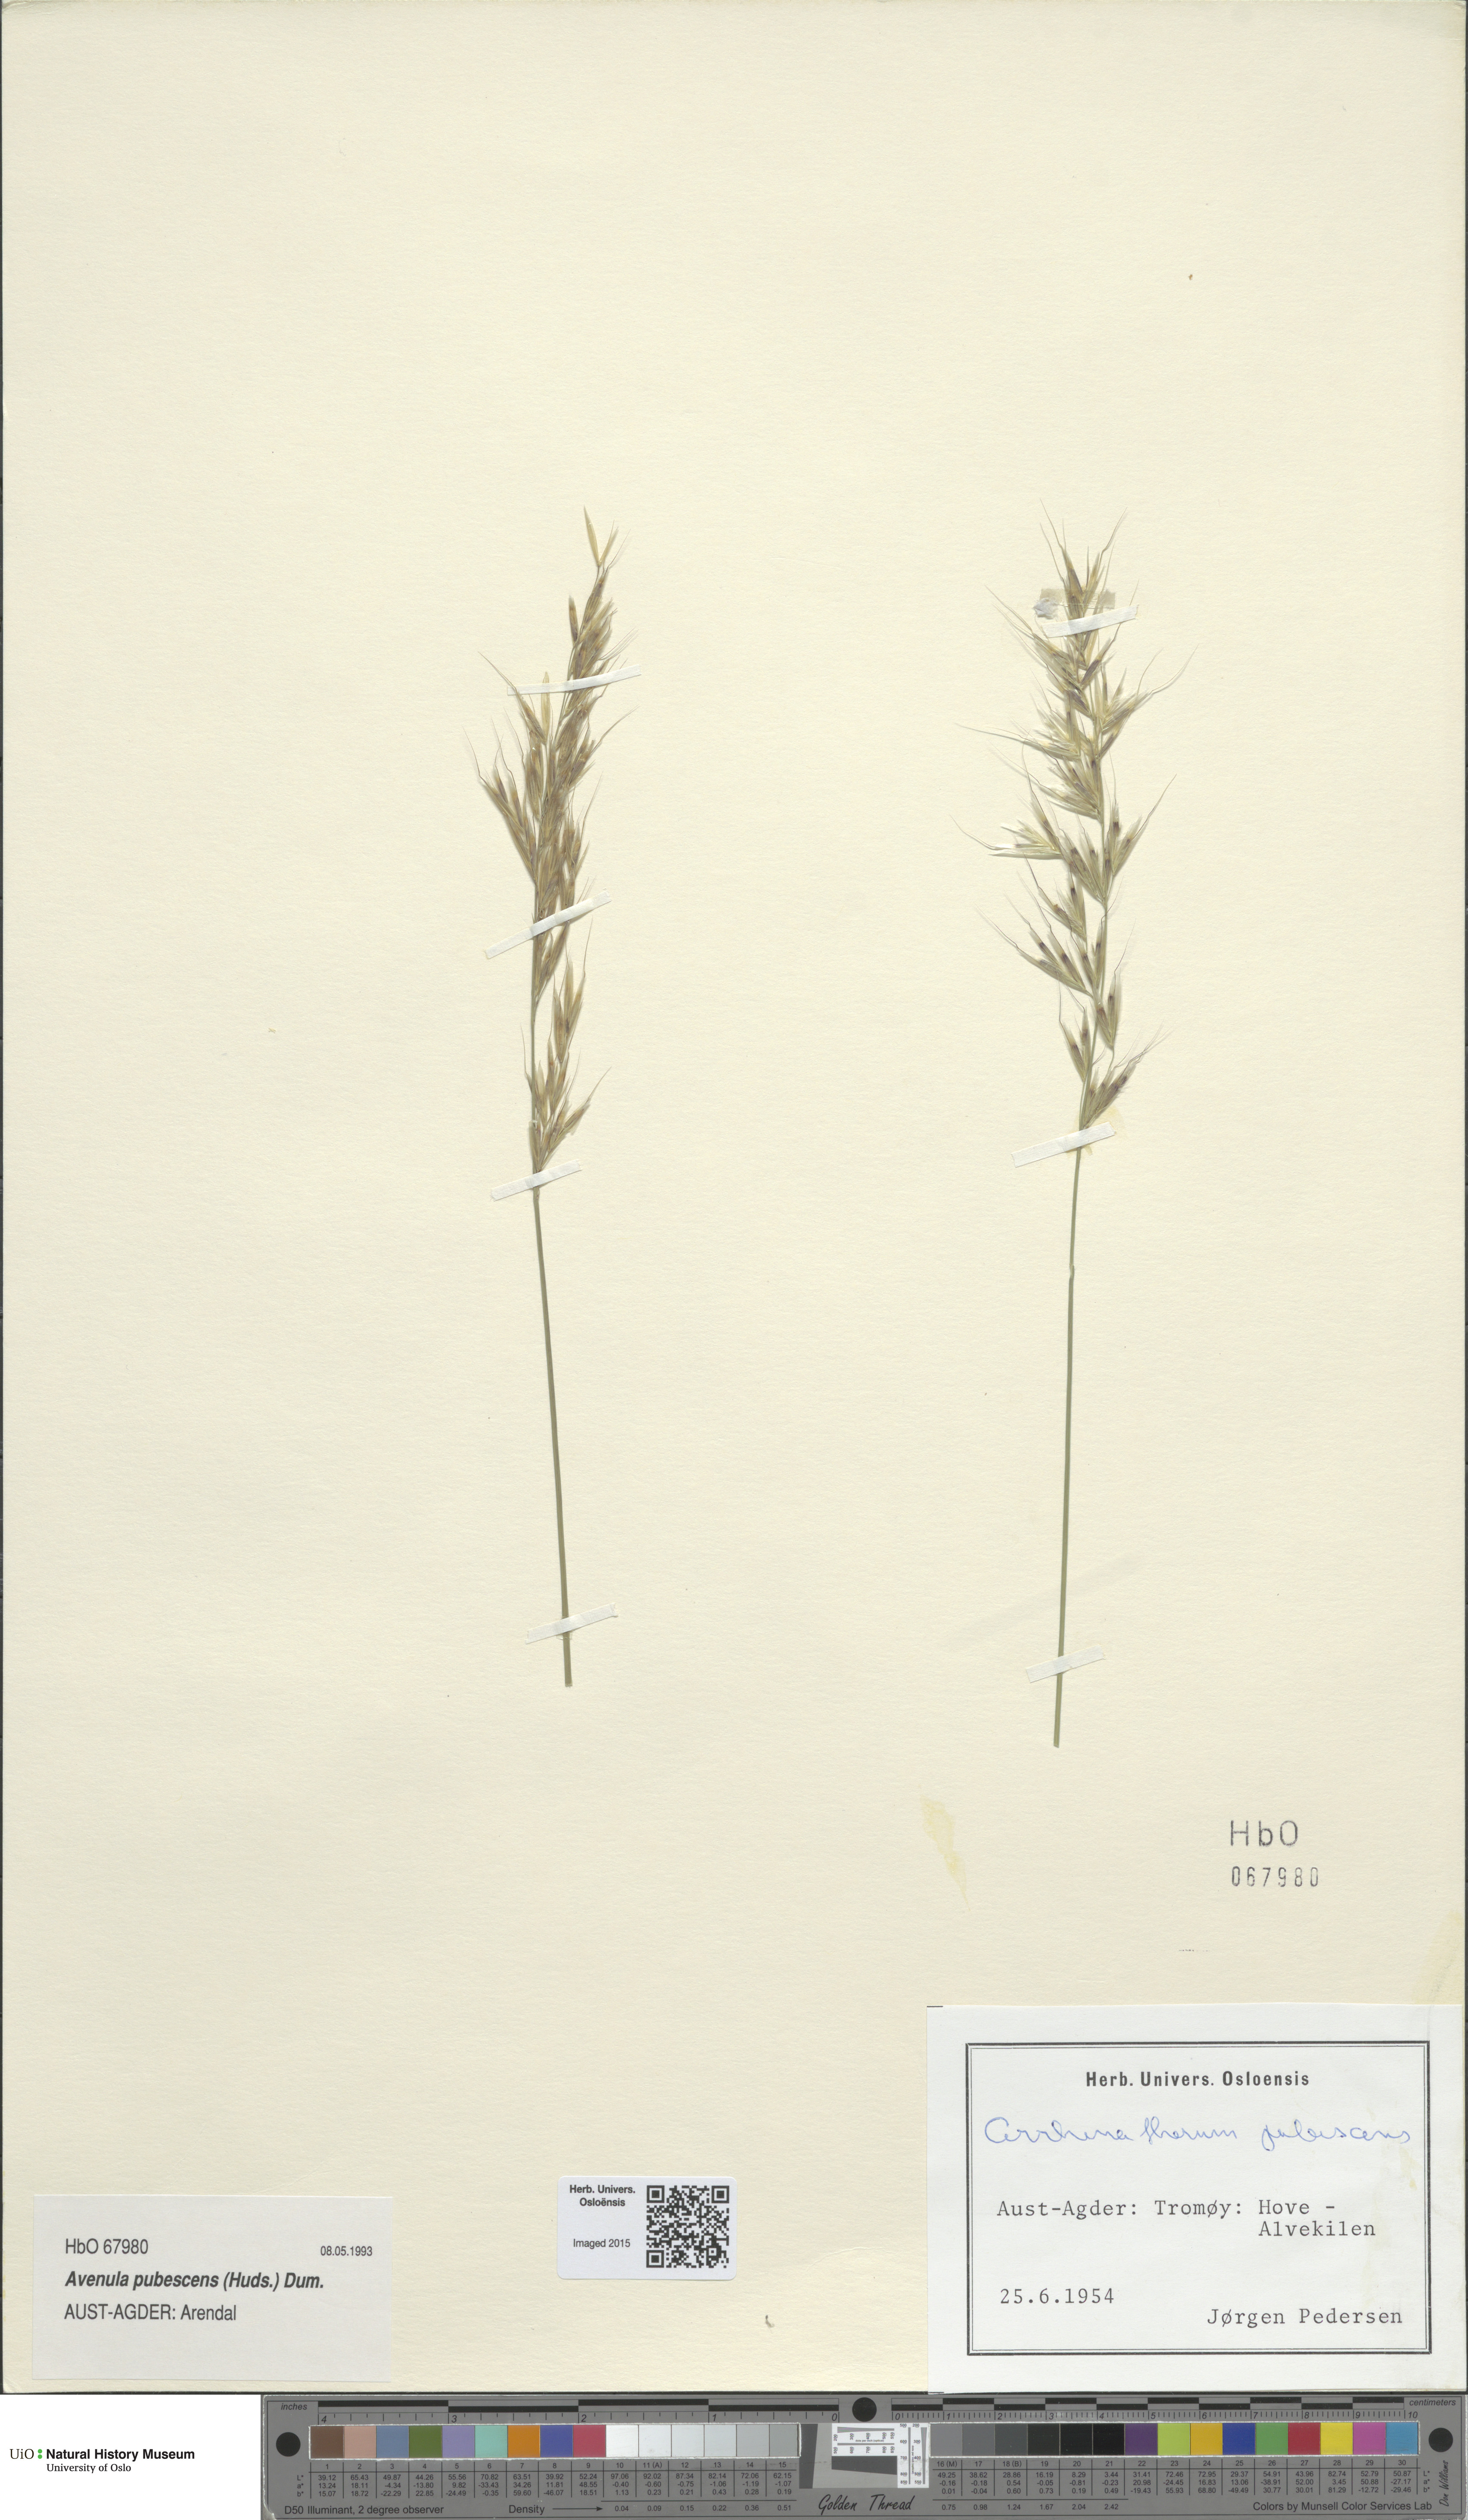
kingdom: Plantae
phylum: Tracheophyta
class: Liliopsida
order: Poales
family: Poaceae
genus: Avenula
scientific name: Avenula pubescens
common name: Downy alpine oatgrass
